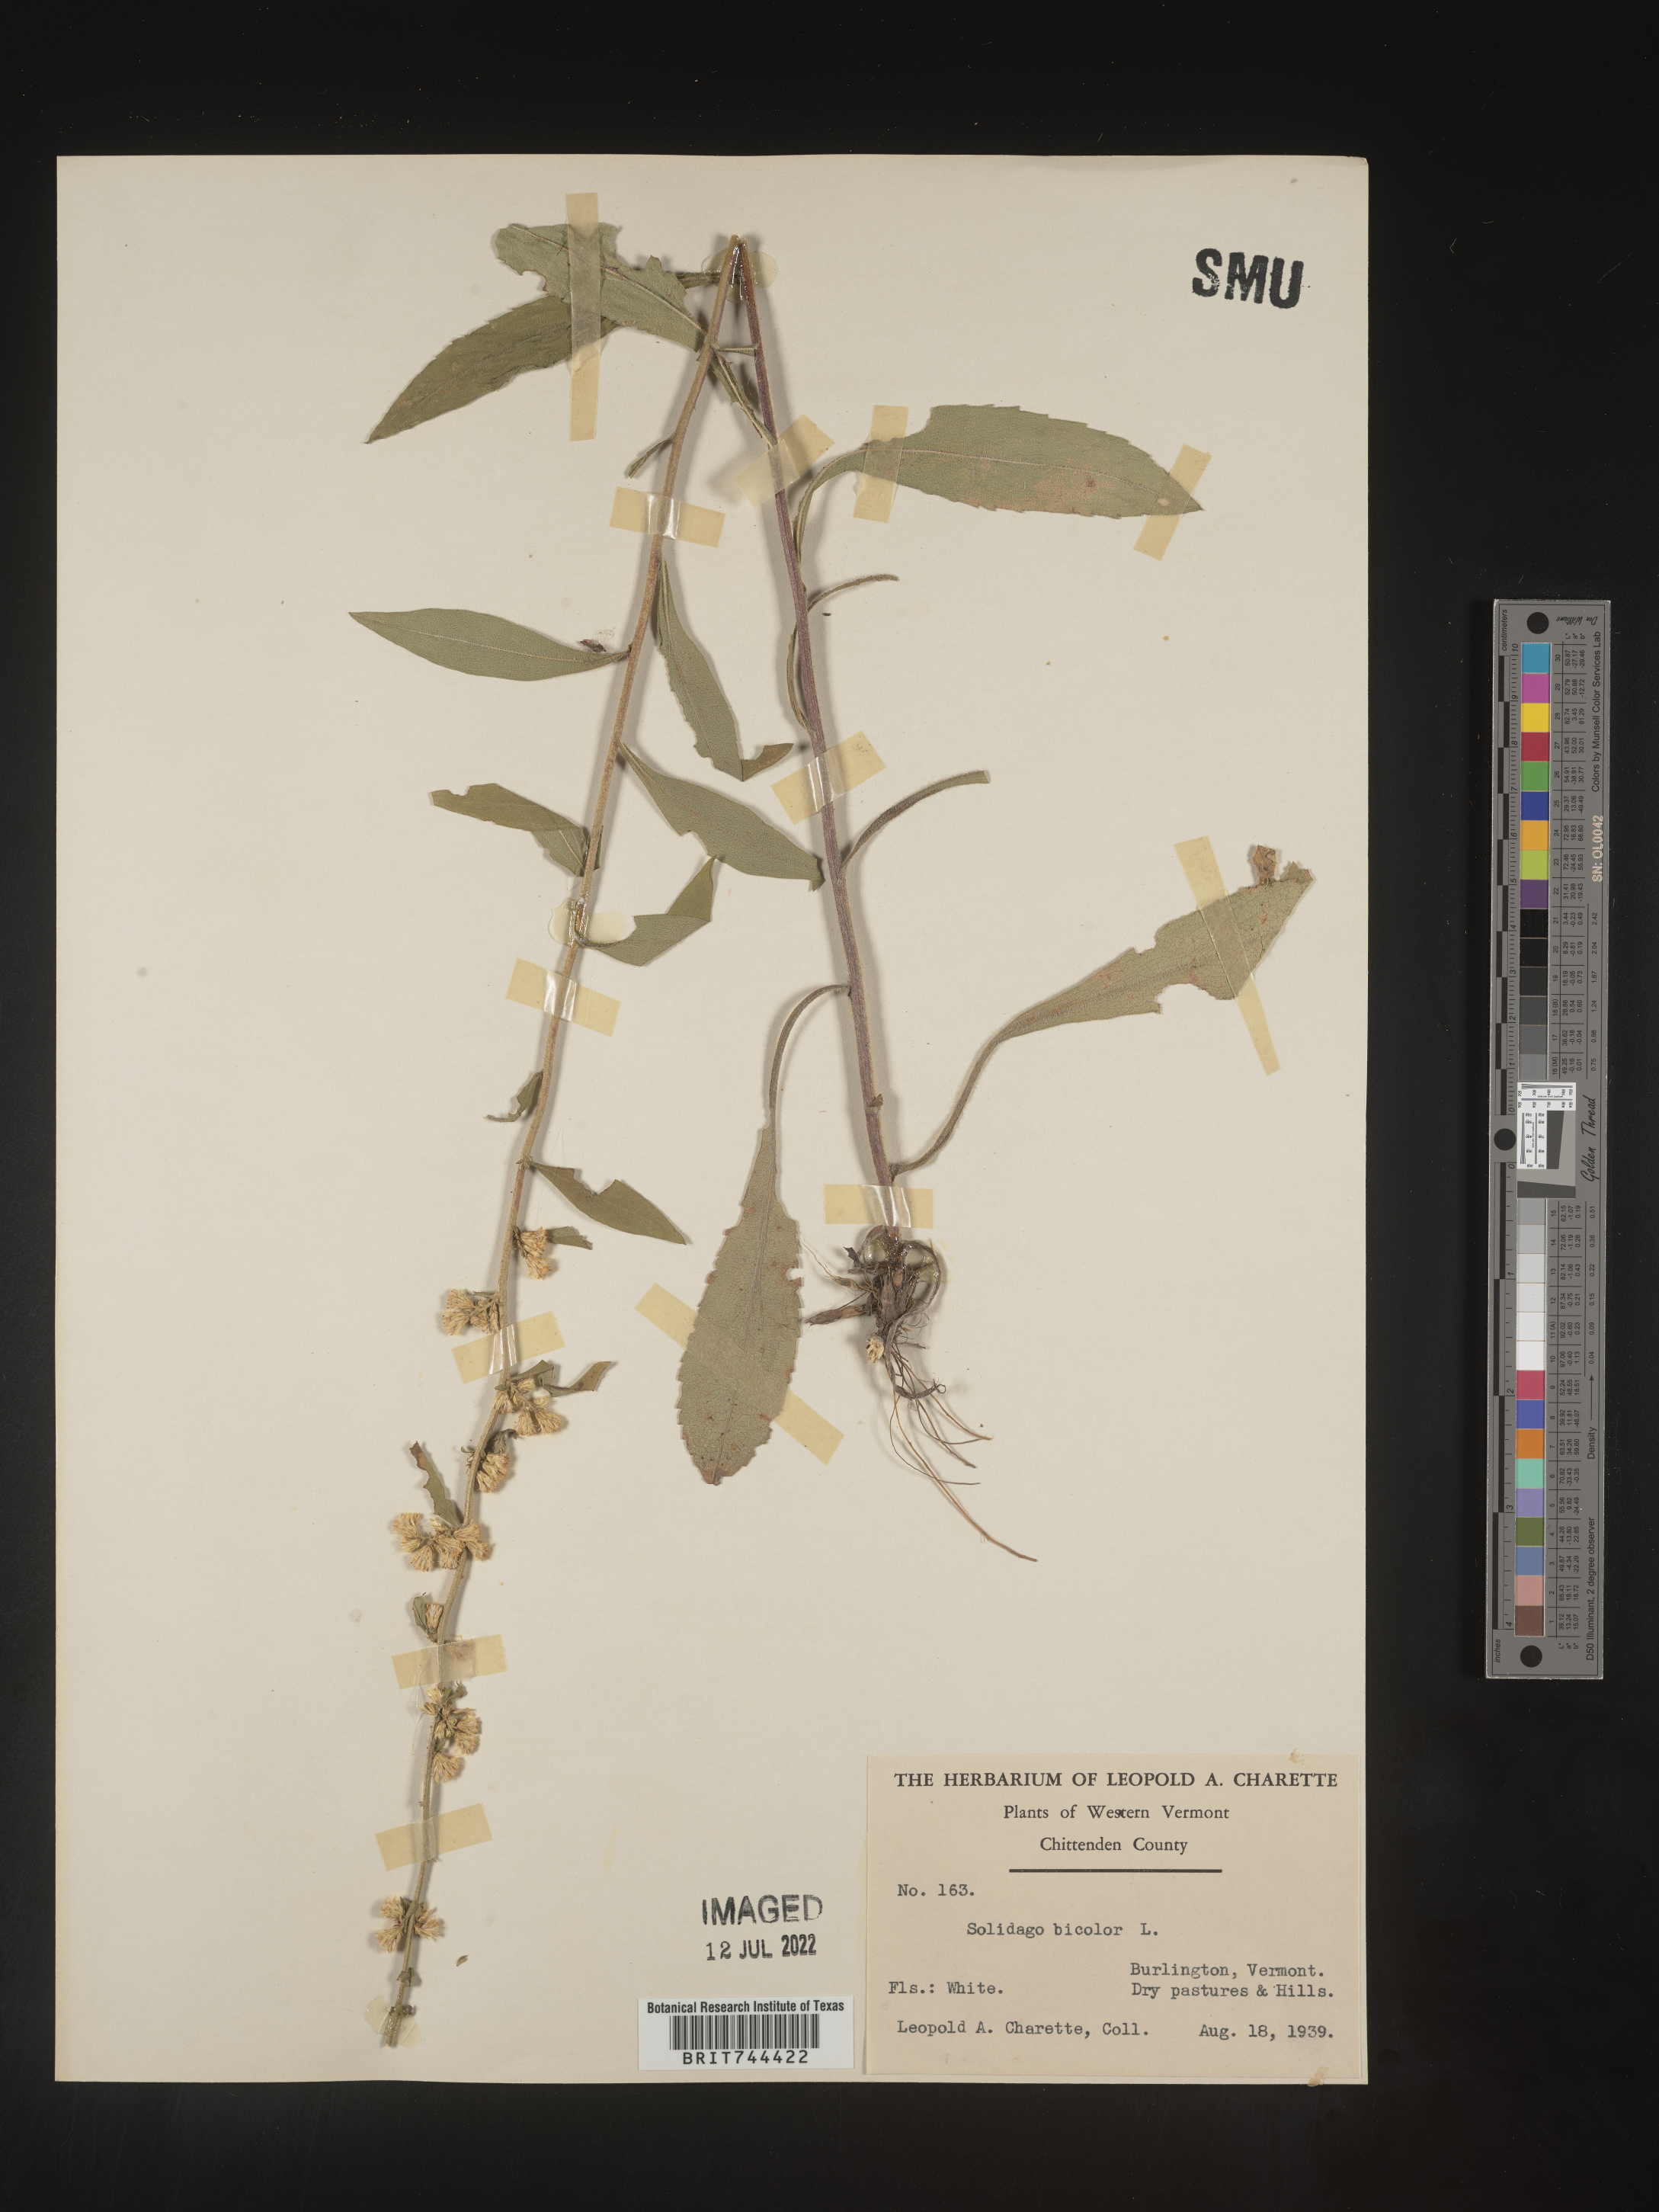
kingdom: Plantae
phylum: Tracheophyta
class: Magnoliopsida
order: Asterales
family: Asteraceae
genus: Solidago
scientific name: Solidago bicolor
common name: Silverrod
